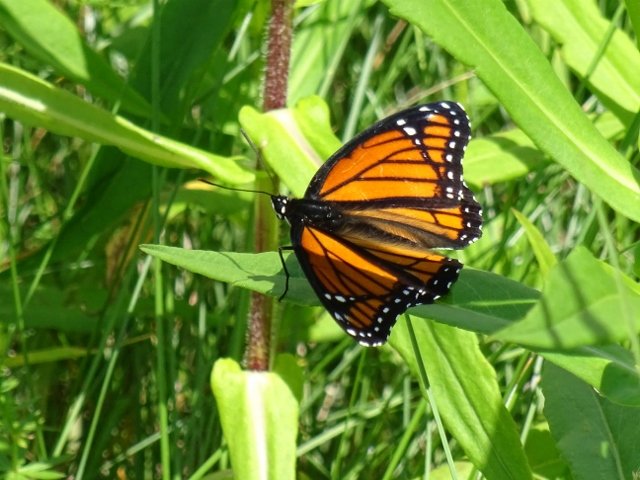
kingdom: Animalia
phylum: Arthropoda
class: Insecta
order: Lepidoptera
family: Nymphalidae
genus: Limenitis
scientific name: Limenitis archippus
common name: Viceroy
